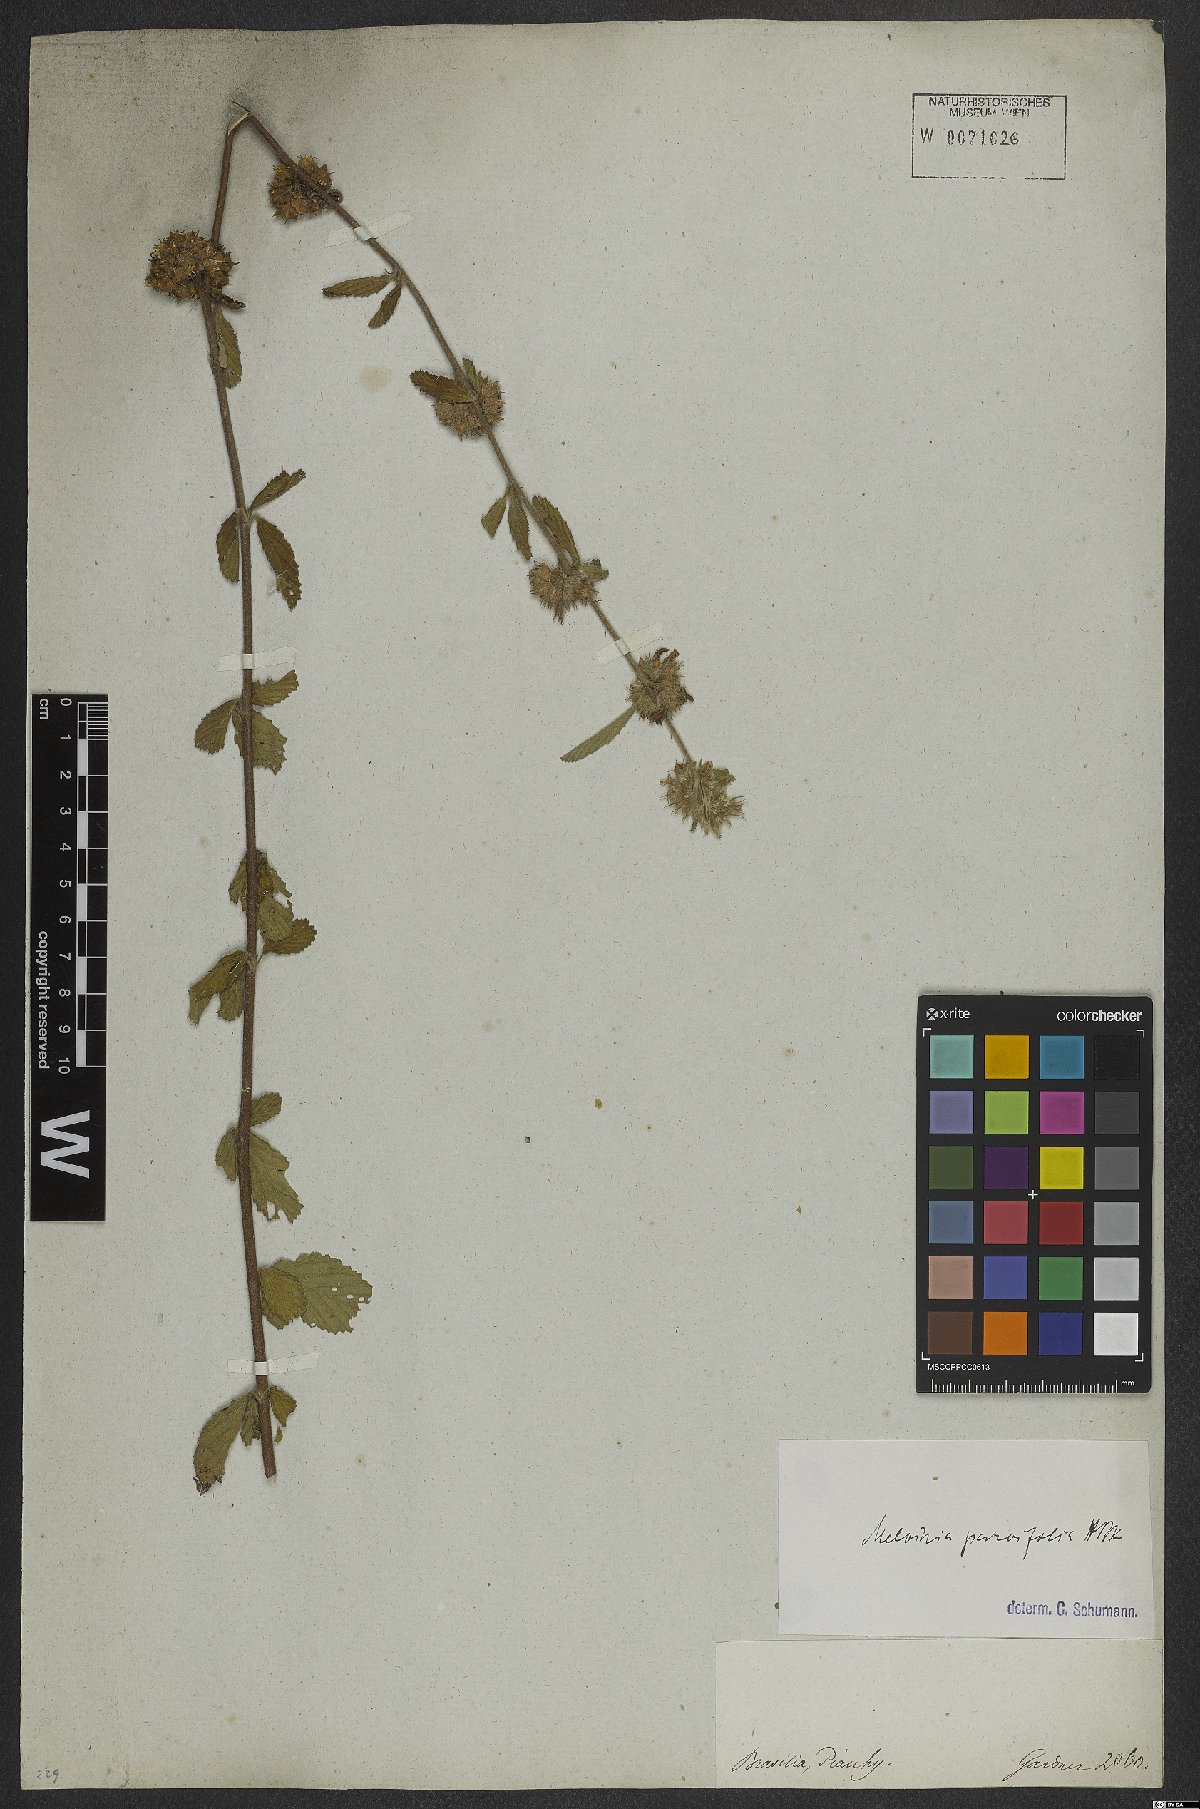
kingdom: Plantae
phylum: Tracheophyta
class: Magnoliopsida
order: Malvales
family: Malvaceae
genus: Melochia
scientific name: Melochia parvifolia
